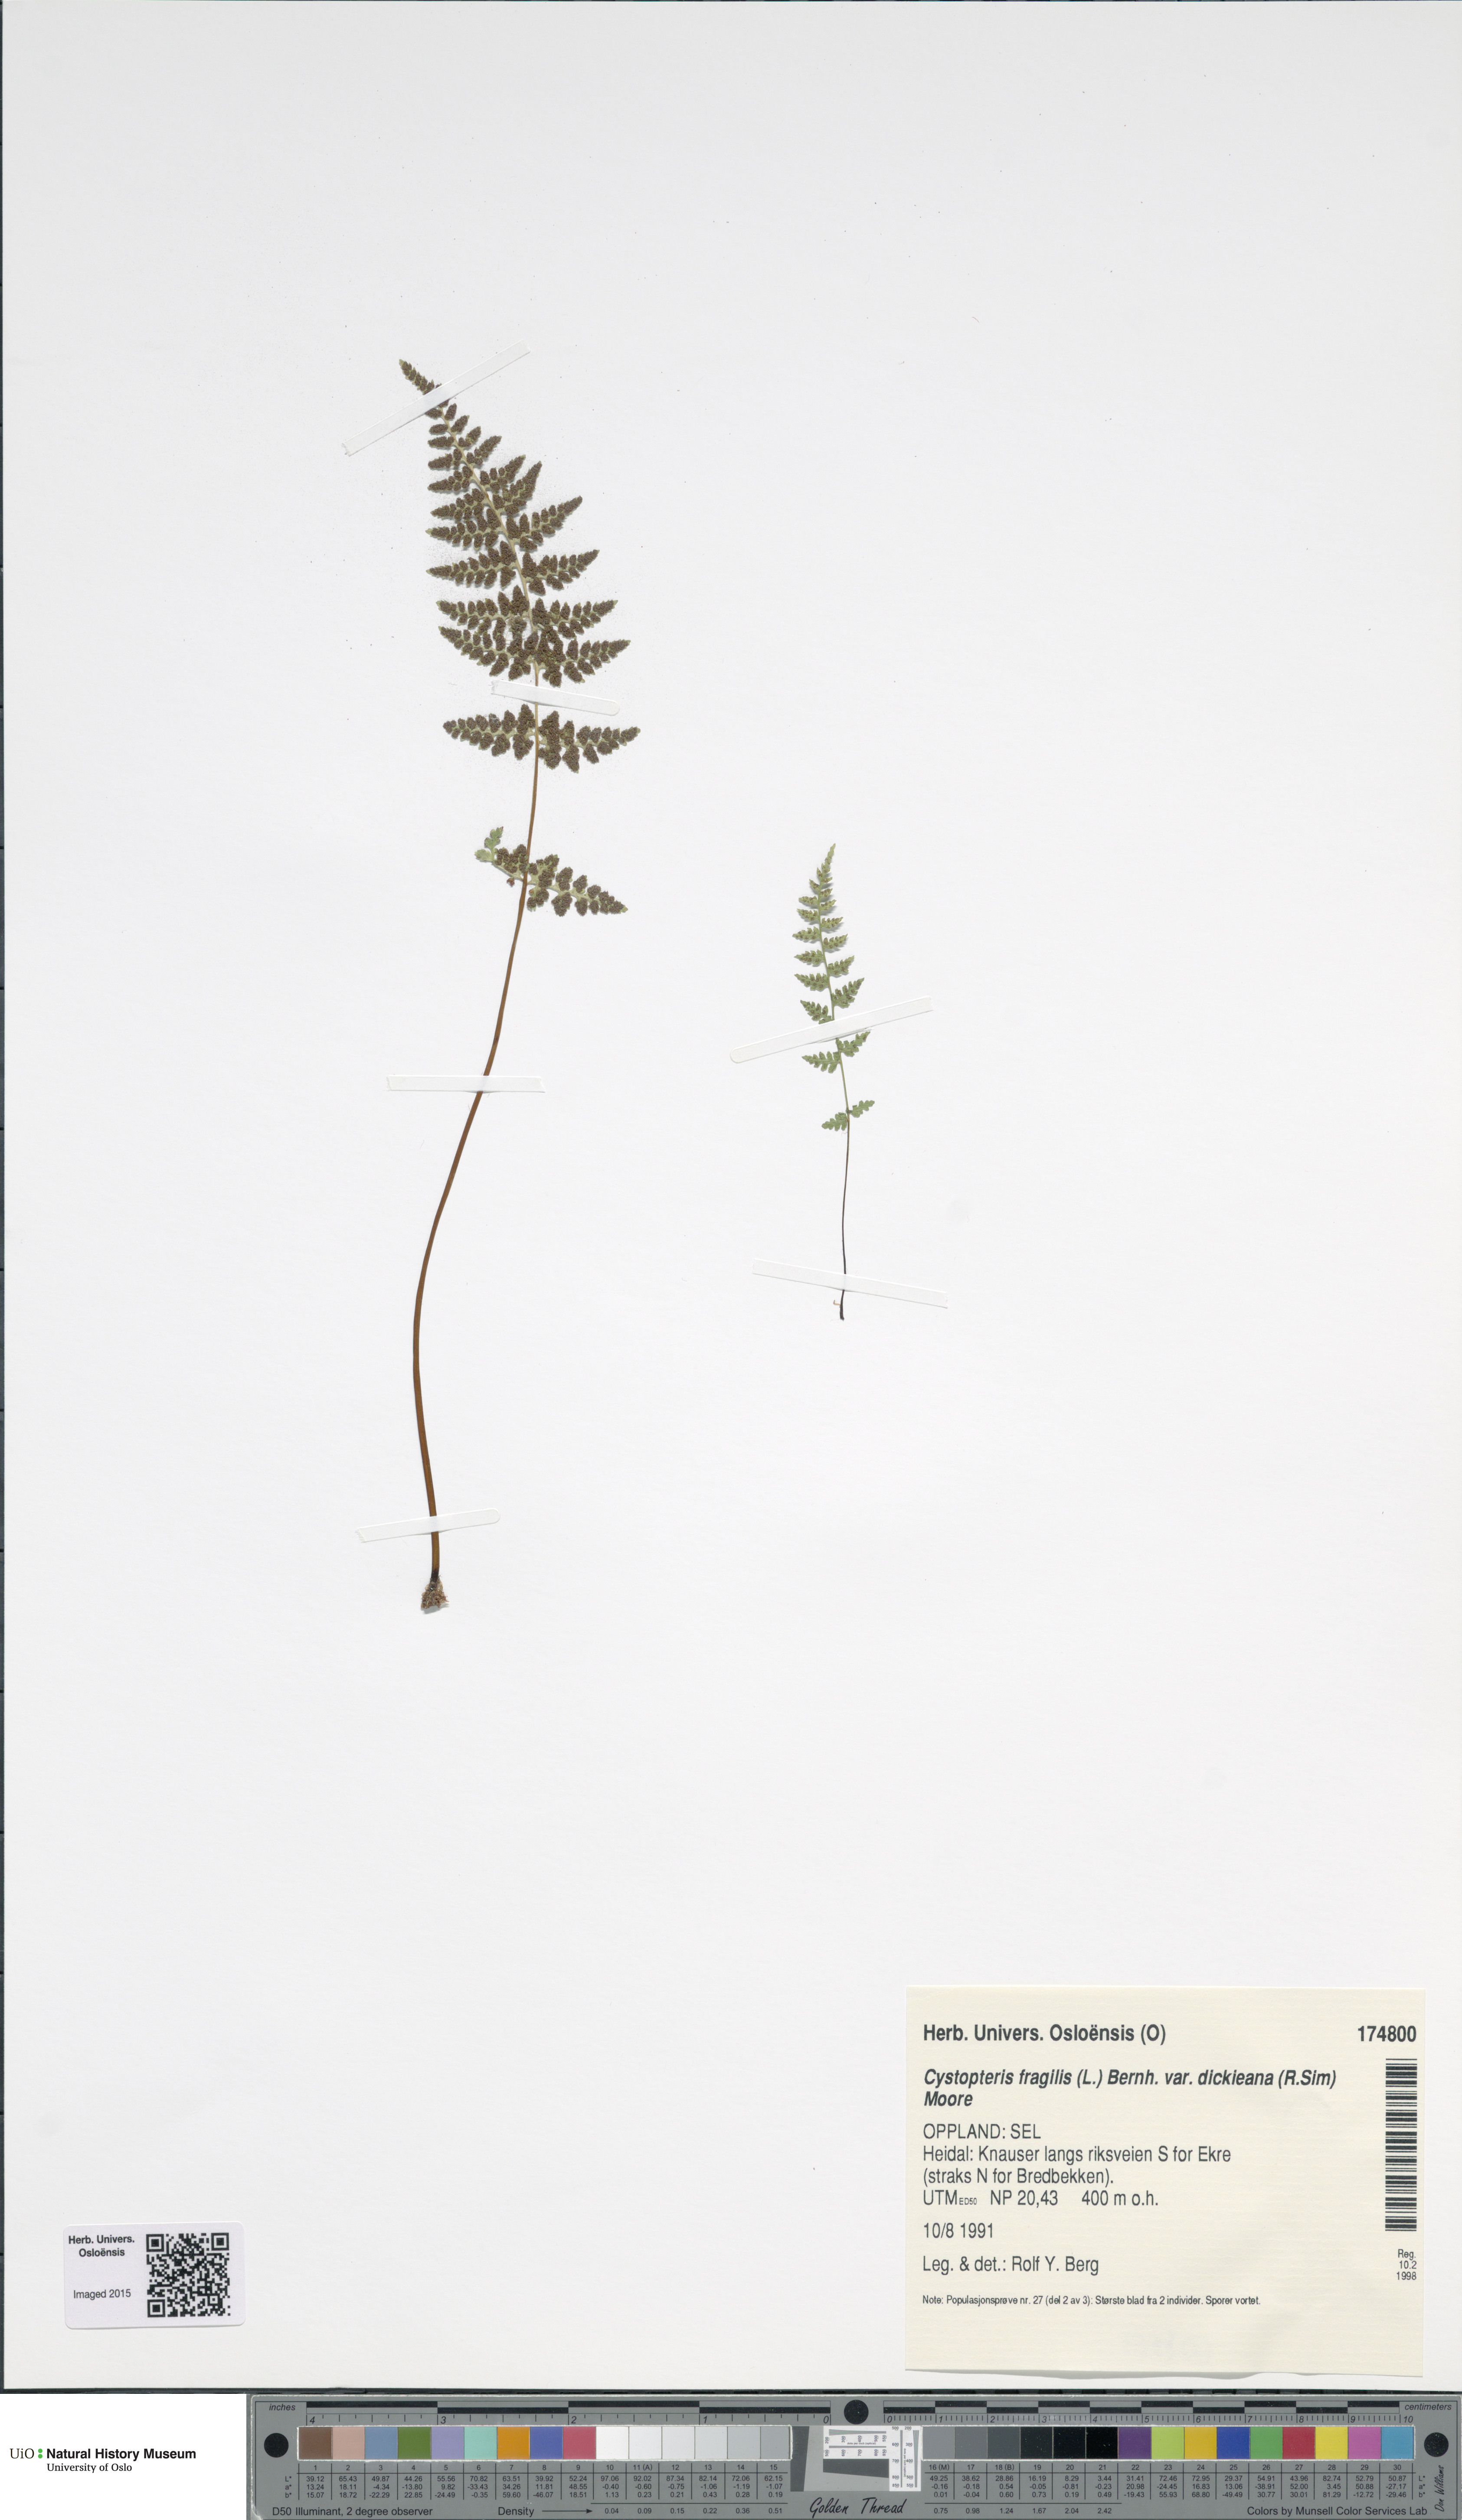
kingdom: Plantae
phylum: Tracheophyta
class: Polypodiopsida
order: Polypodiales
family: Cystopteridaceae
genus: Cystopteris
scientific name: Cystopteris dickieana
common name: Dickie's bladder-fern
